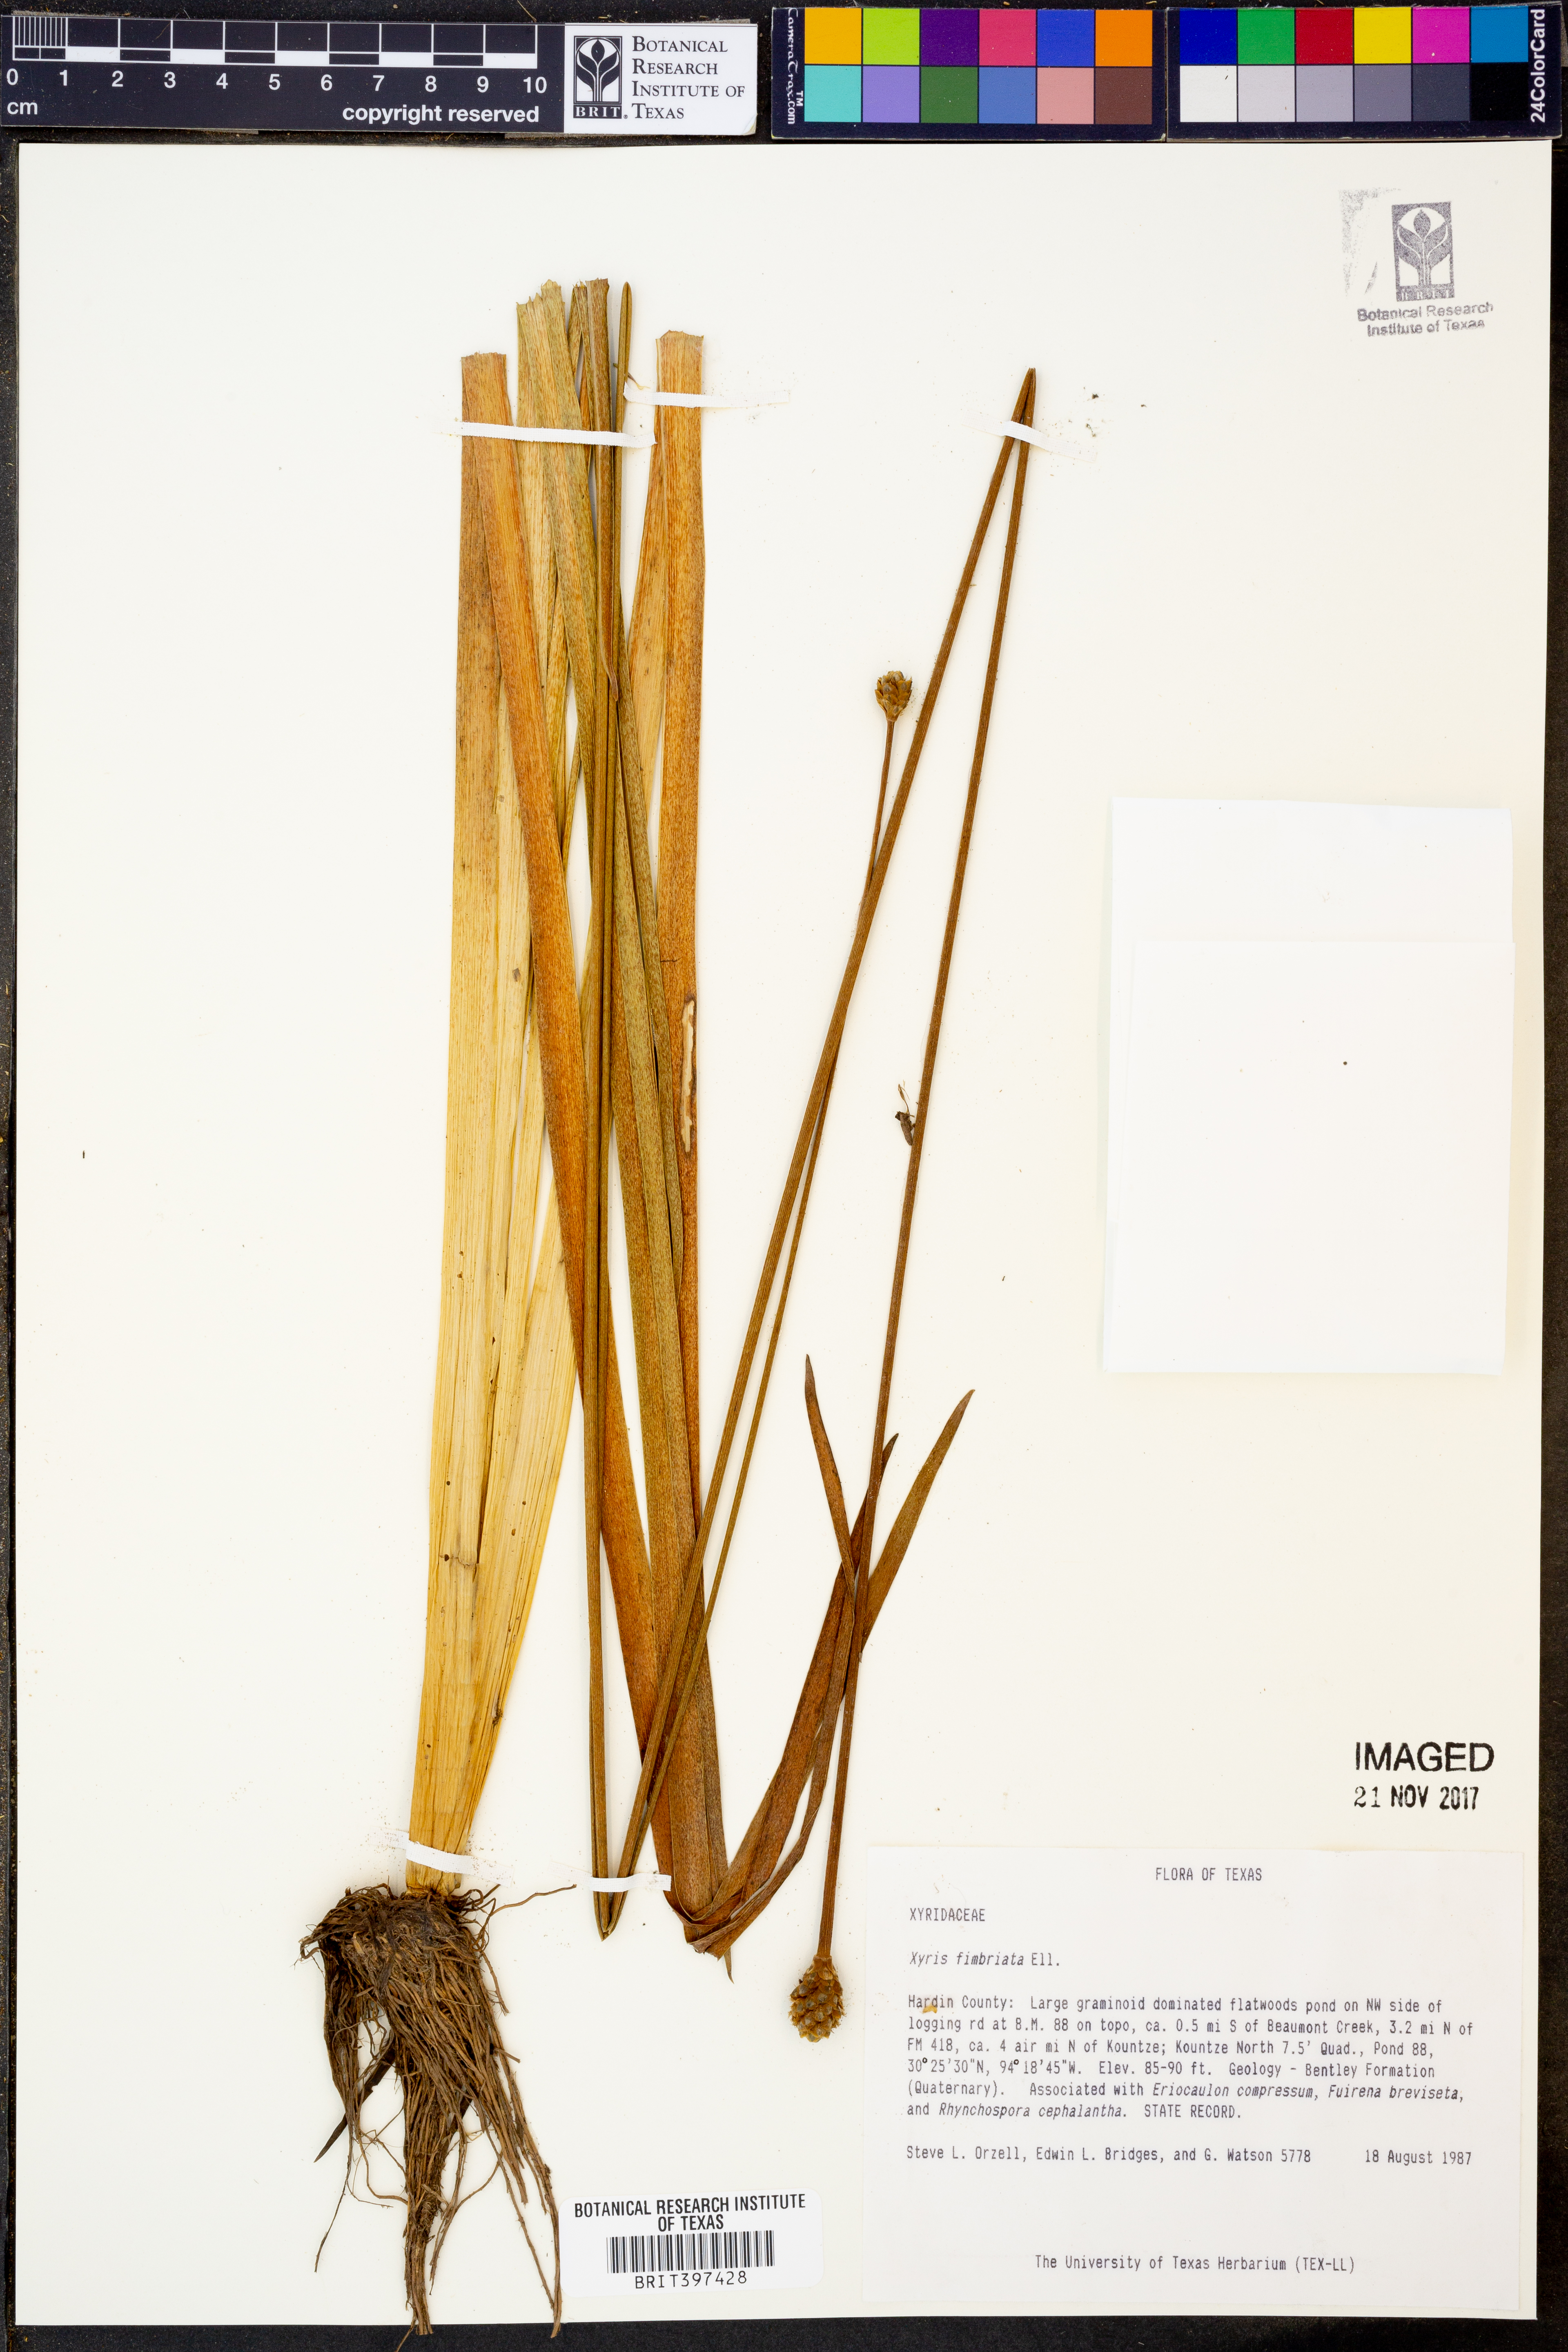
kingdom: Plantae
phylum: Tracheophyta
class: Liliopsida
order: Poales
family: Xyridaceae
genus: Xyris
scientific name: Xyris fimbriata
